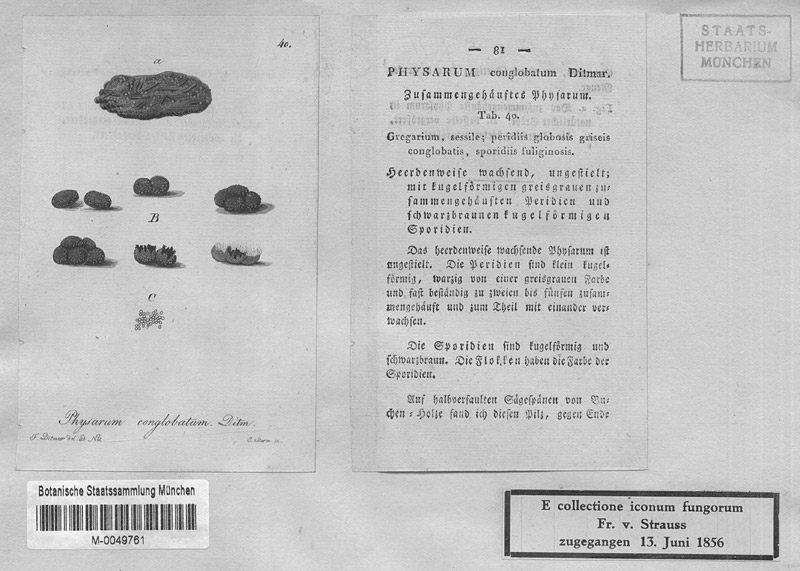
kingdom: Protozoa
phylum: Mycetozoa
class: Myxomycetes
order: Physarales
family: Physaraceae
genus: Physarum
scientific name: Physarum leucophaeum
